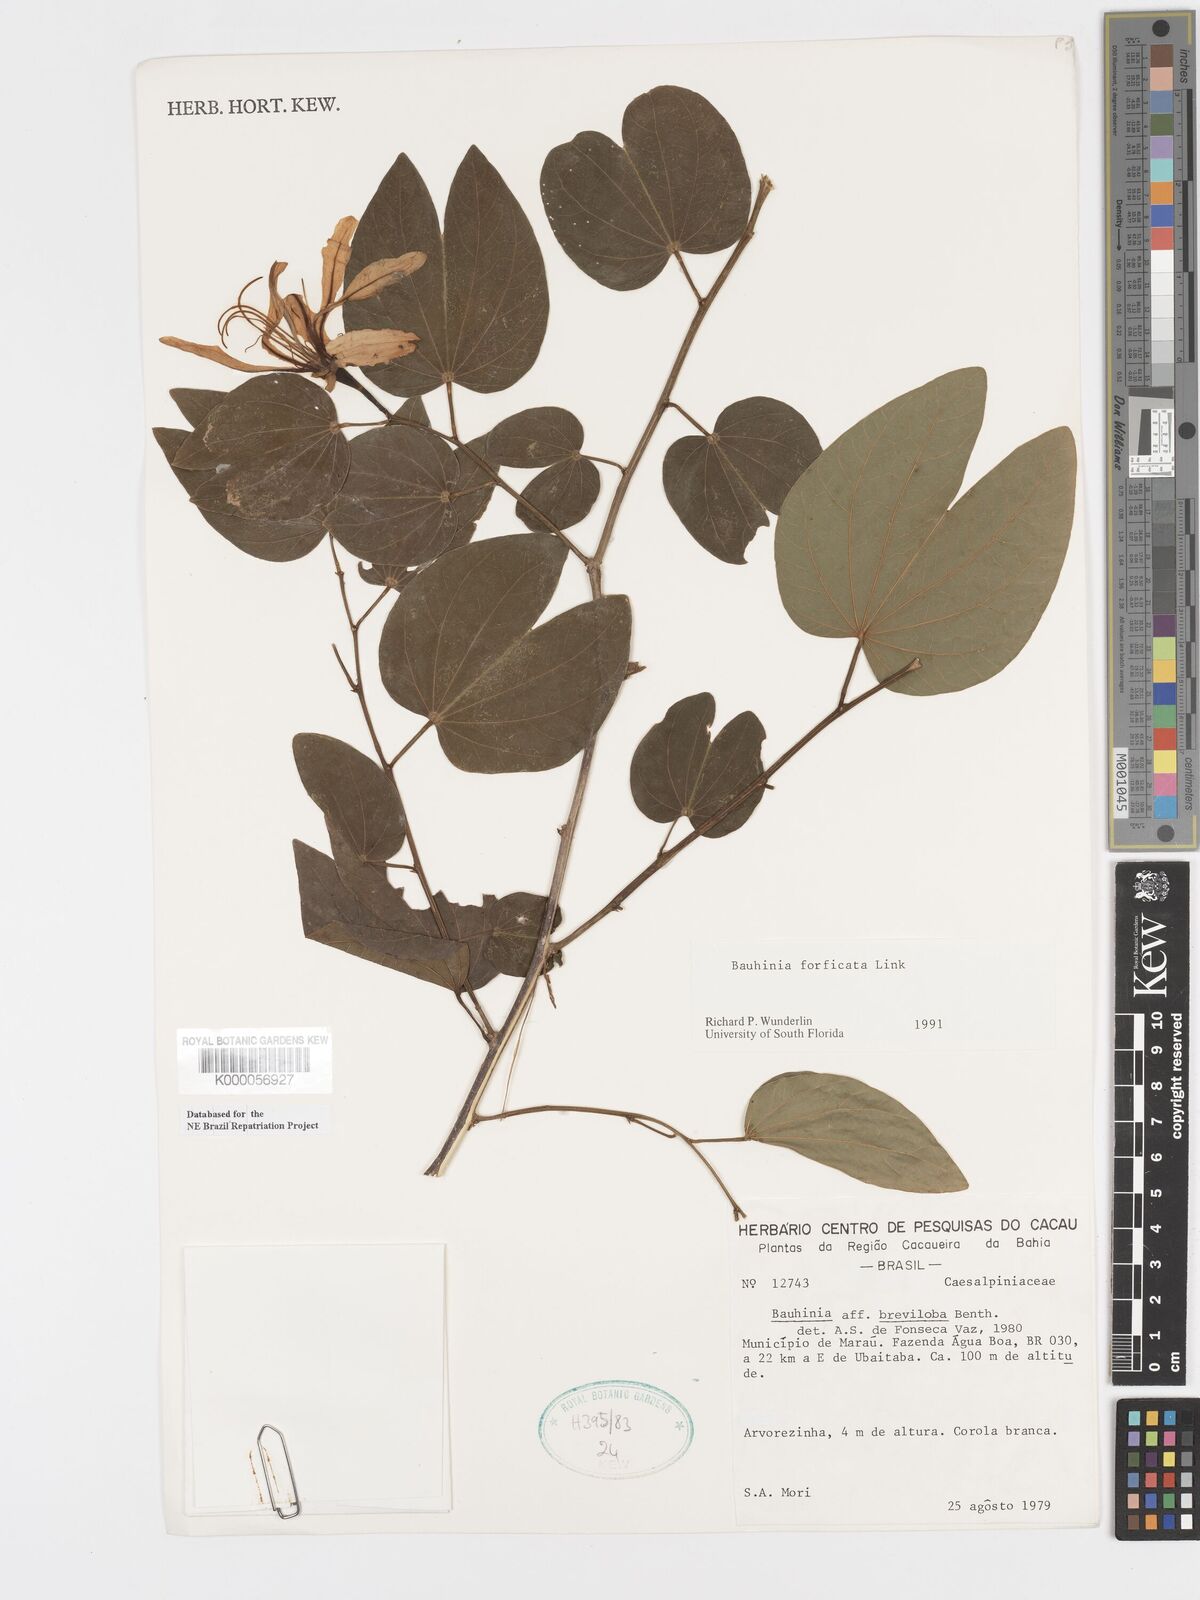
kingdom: Plantae
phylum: Tracheophyta
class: Magnoliopsida
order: Fabales
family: Fabaceae
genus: Bauhinia
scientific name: Bauhinia forficata
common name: Orchid tree
